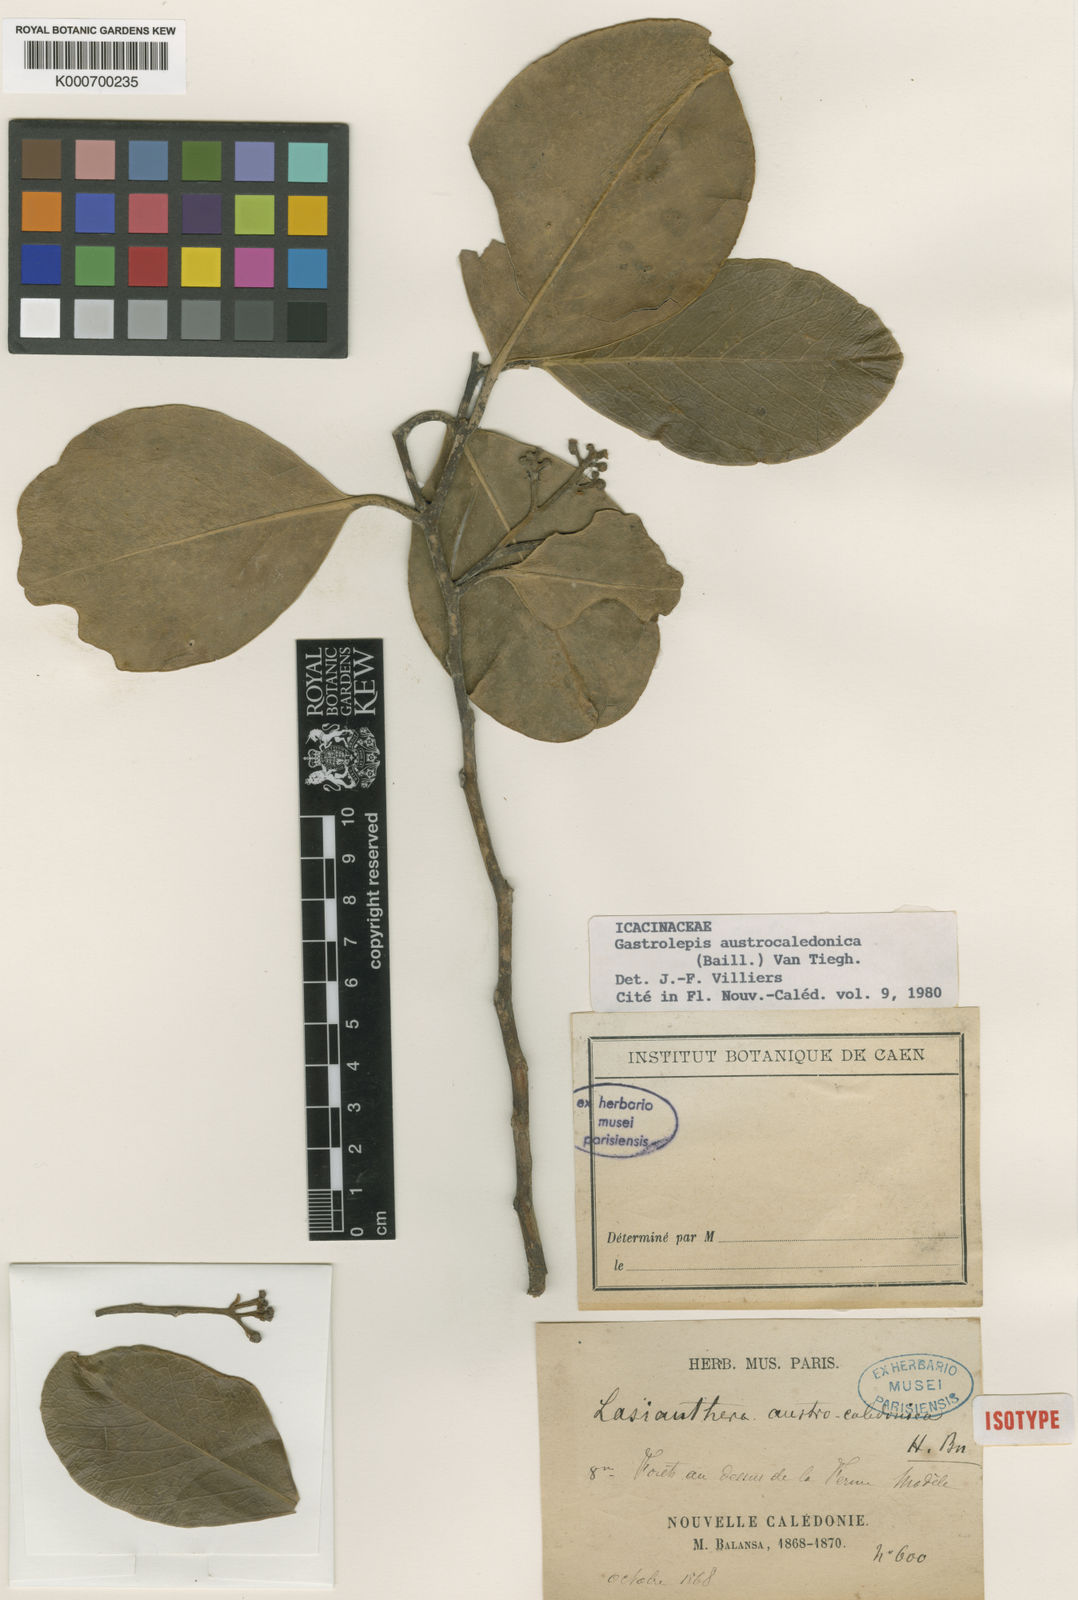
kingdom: Plantae
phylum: Tracheophyta
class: Magnoliopsida
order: Cardiopteridales
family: Stemonuraceae
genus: Gastrolepis
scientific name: Gastrolepis
